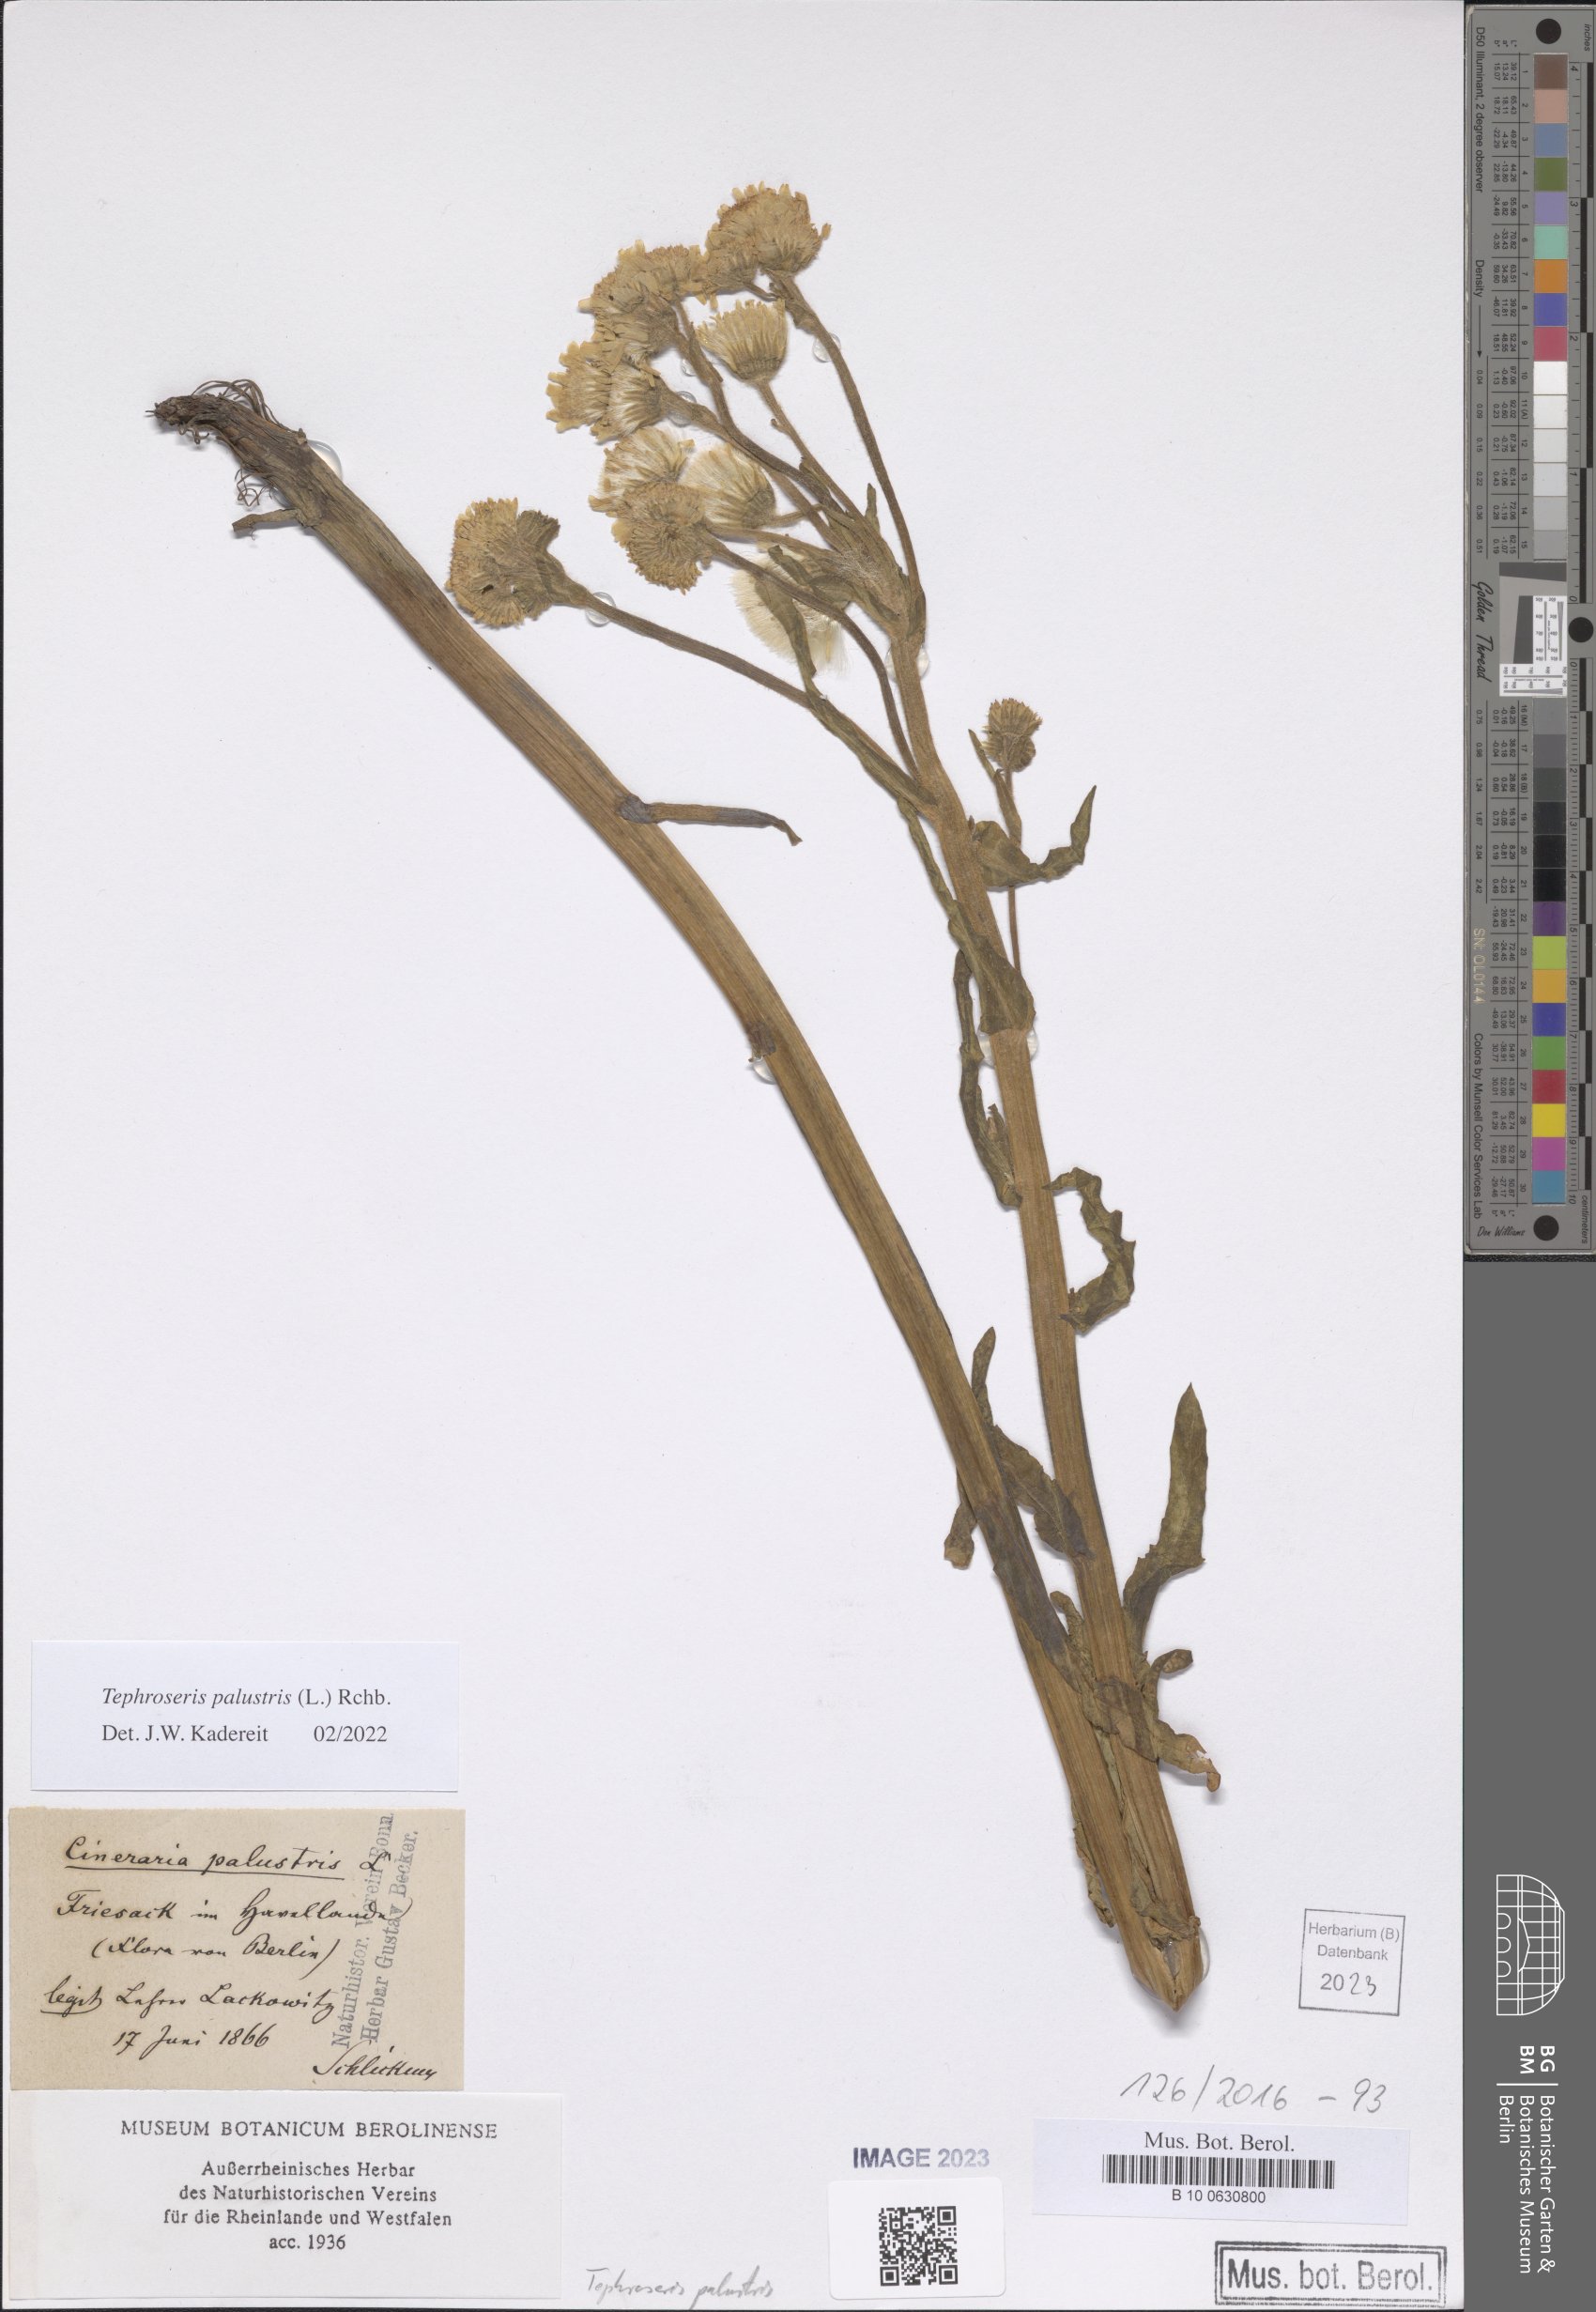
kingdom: Plantae
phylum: Tracheophyta
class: Magnoliopsida
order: Asterales
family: Asteraceae
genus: Tephroseris
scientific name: Tephroseris palustris
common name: Marsh fleawort
